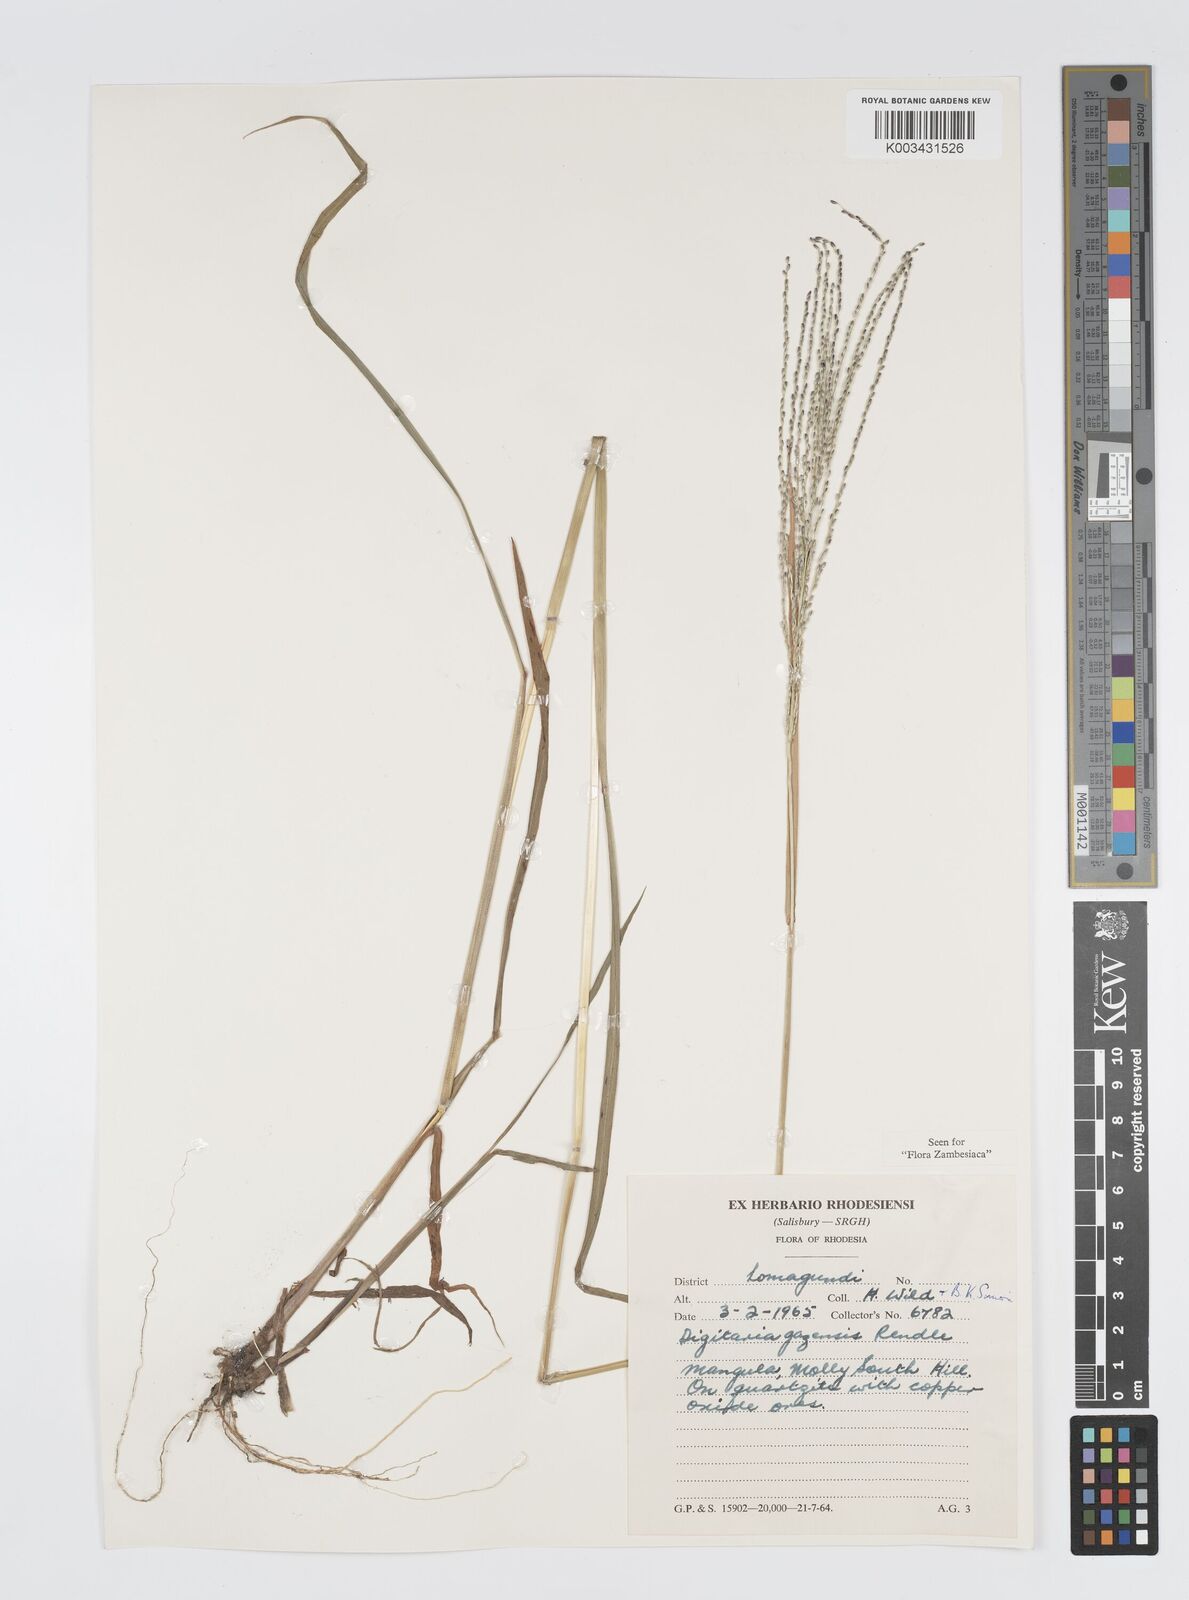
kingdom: Plantae
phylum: Tracheophyta
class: Liliopsida
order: Poales
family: Poaceae
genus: Digitaria
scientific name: Digitaria gazensis
